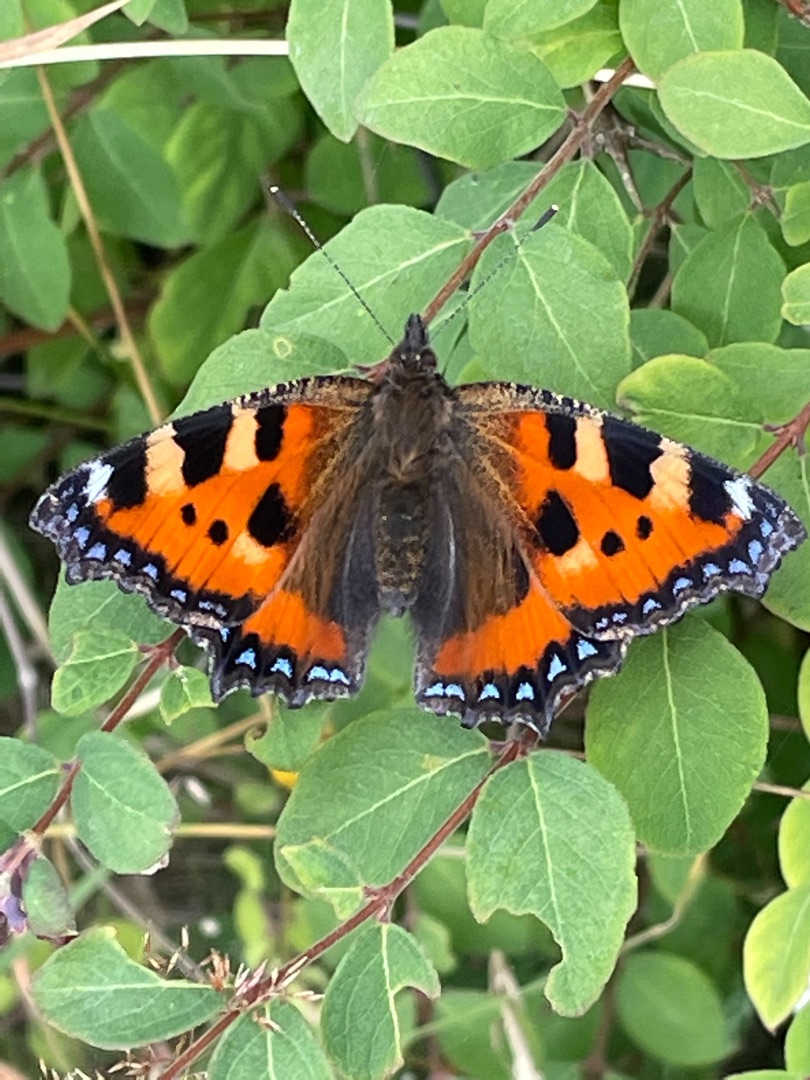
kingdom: Animalia
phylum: Arthropoda
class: Insecta
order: Lepidoptera
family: Nymphalidae
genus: Aglais
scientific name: Aglais urticae
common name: Nældens takvinge
